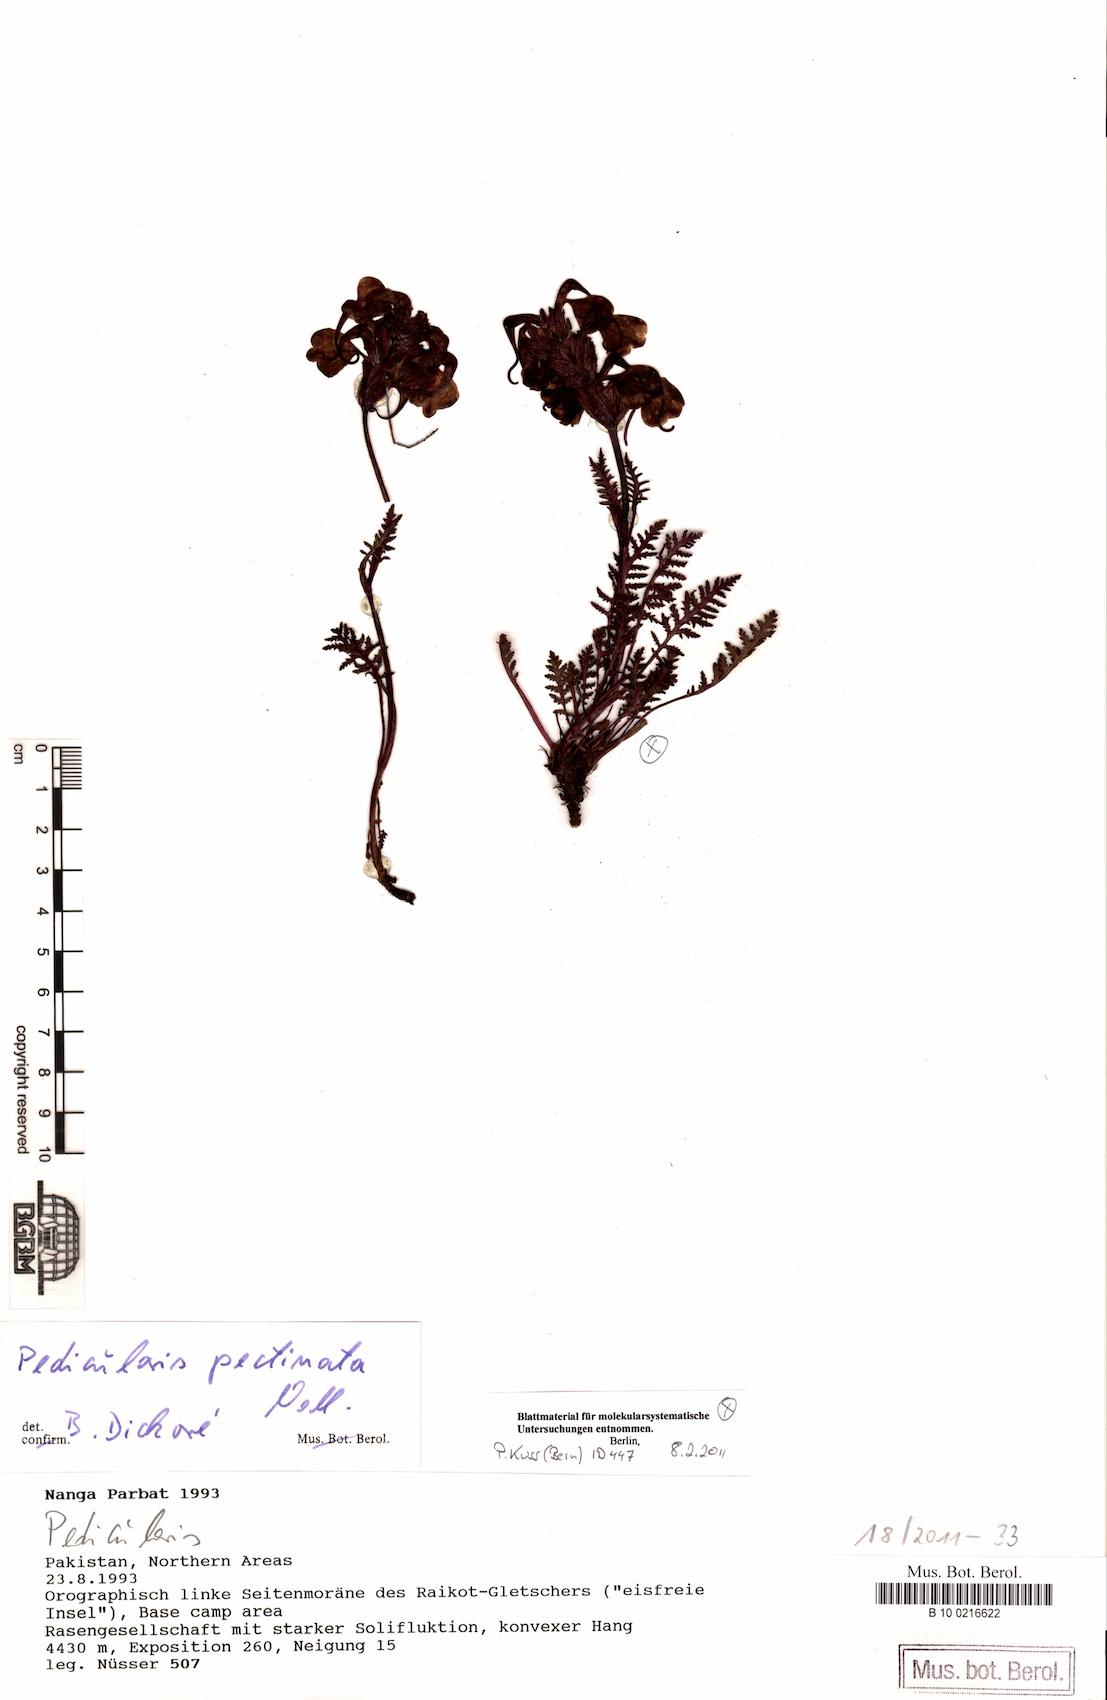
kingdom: Plantae
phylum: Tracheophyta
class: Magnoliopsida
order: Lamiales
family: Orobanchaceae
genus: Pedicularis
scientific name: Pedicularis pectinata
